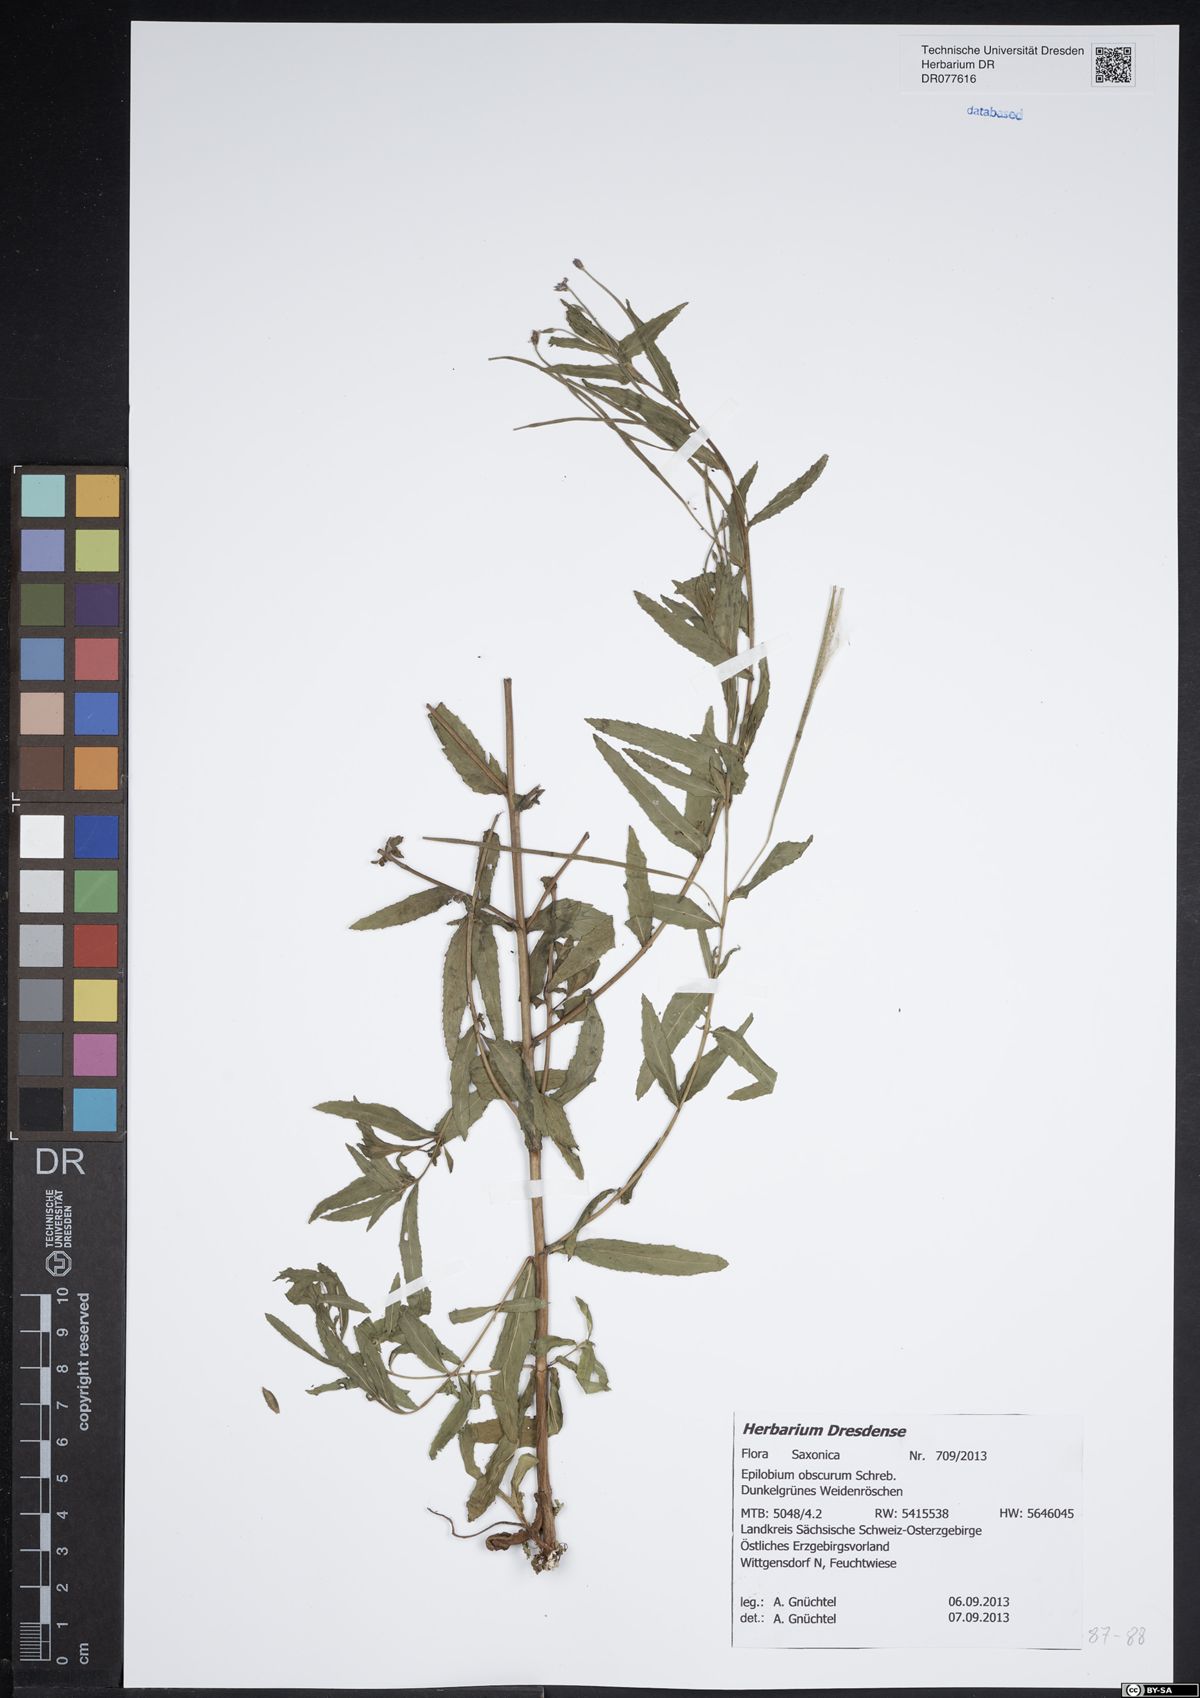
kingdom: Plantae
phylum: Tracheophyta
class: Magnoliopsida
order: Myrtales
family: Onagraceae
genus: Epilobium
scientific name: Epilobium obscurum
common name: Short-fruited willowherb
